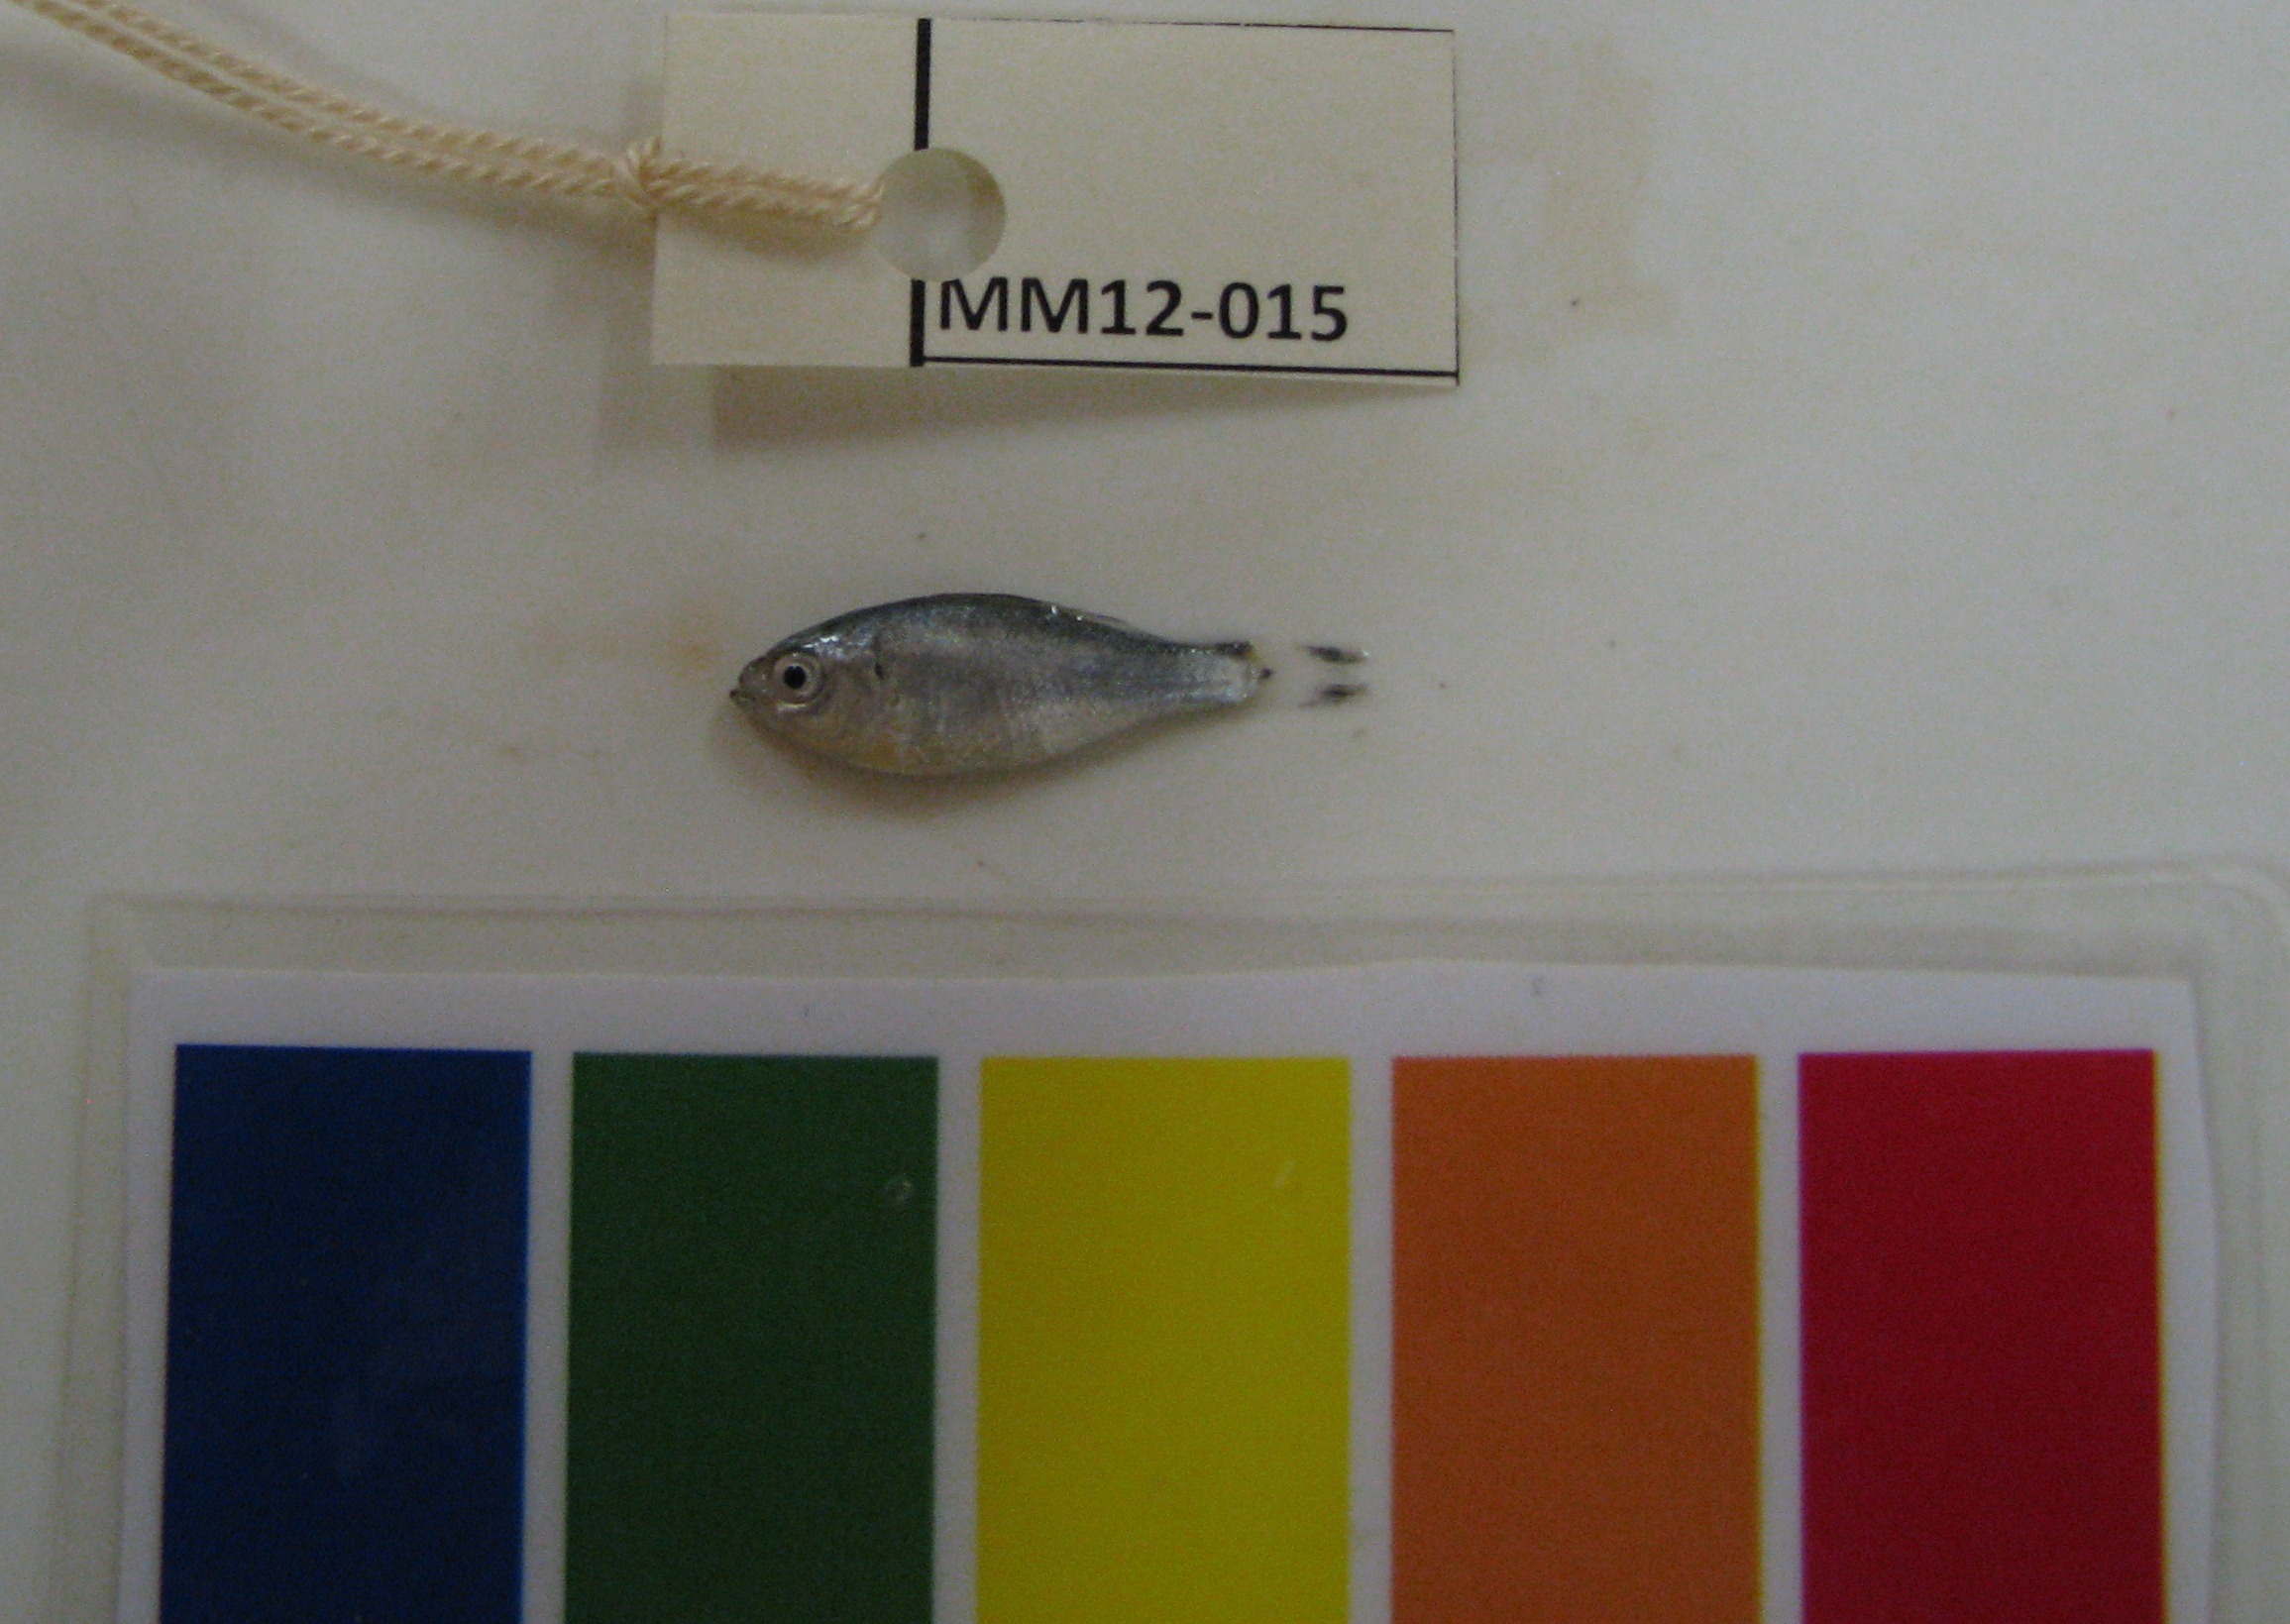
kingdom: Animalia
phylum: Chordata
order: Perciformes
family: Kuhliidae
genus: Kuhlia
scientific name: Kuhlia mugil
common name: Barred flagtail
